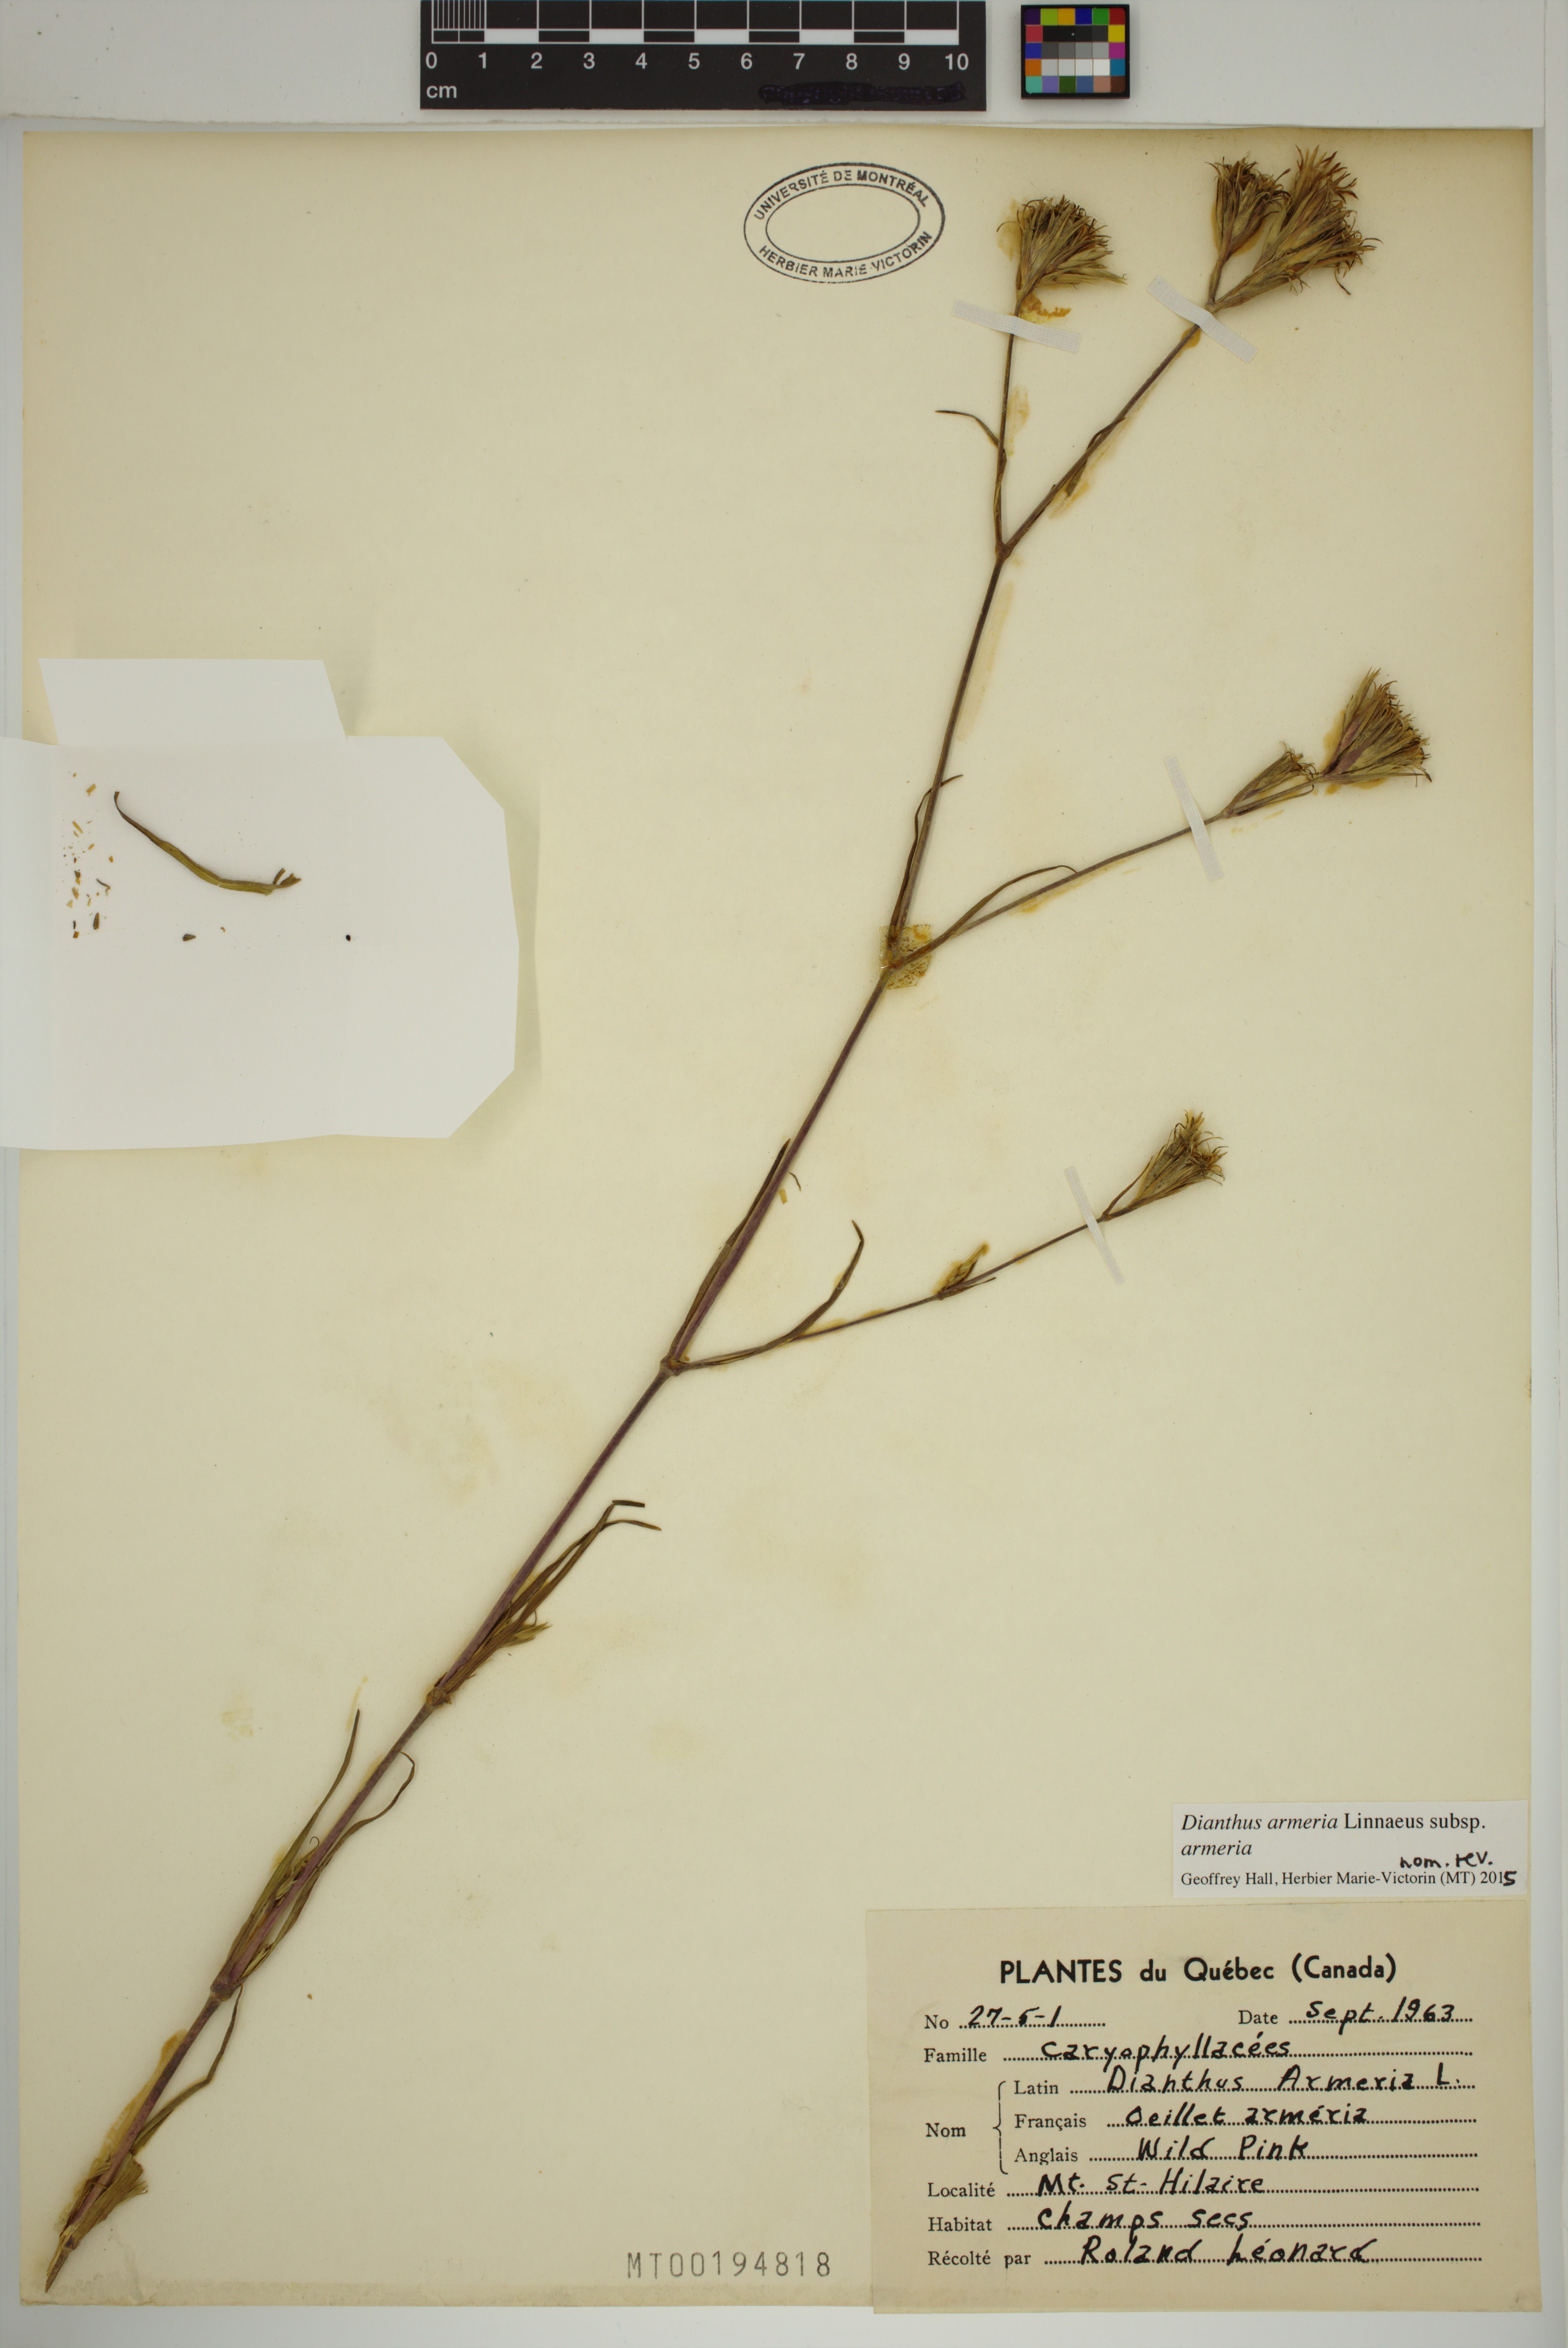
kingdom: Plantae
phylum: Tracheophyta
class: Magnoliopsida
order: Caryophyllales
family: Caryophyllaceae
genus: Dianthus
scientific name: Dianthus armeria
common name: Deptford pink
